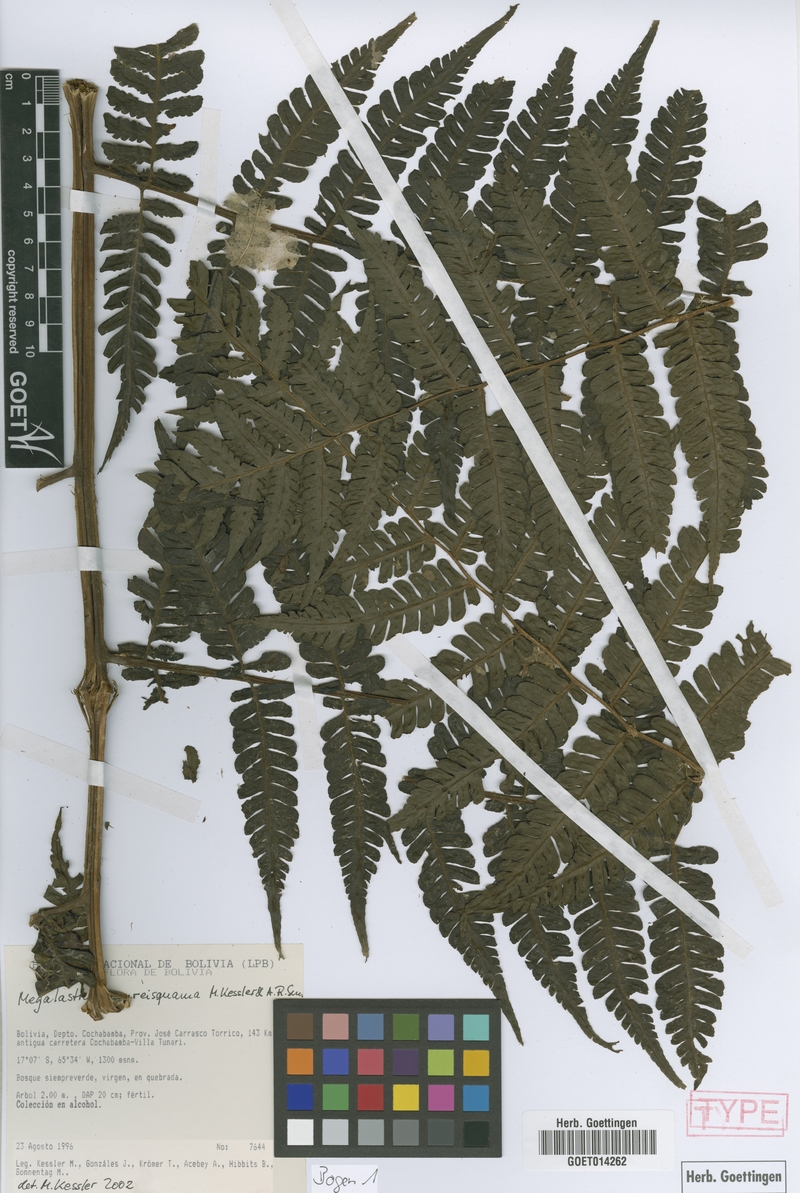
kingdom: Plantae
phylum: Tracheophyta
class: Polypodiopsida
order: Polypodiales
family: Dryopteridaceae
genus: Megalastrum
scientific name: Megalastrum aureisquama
